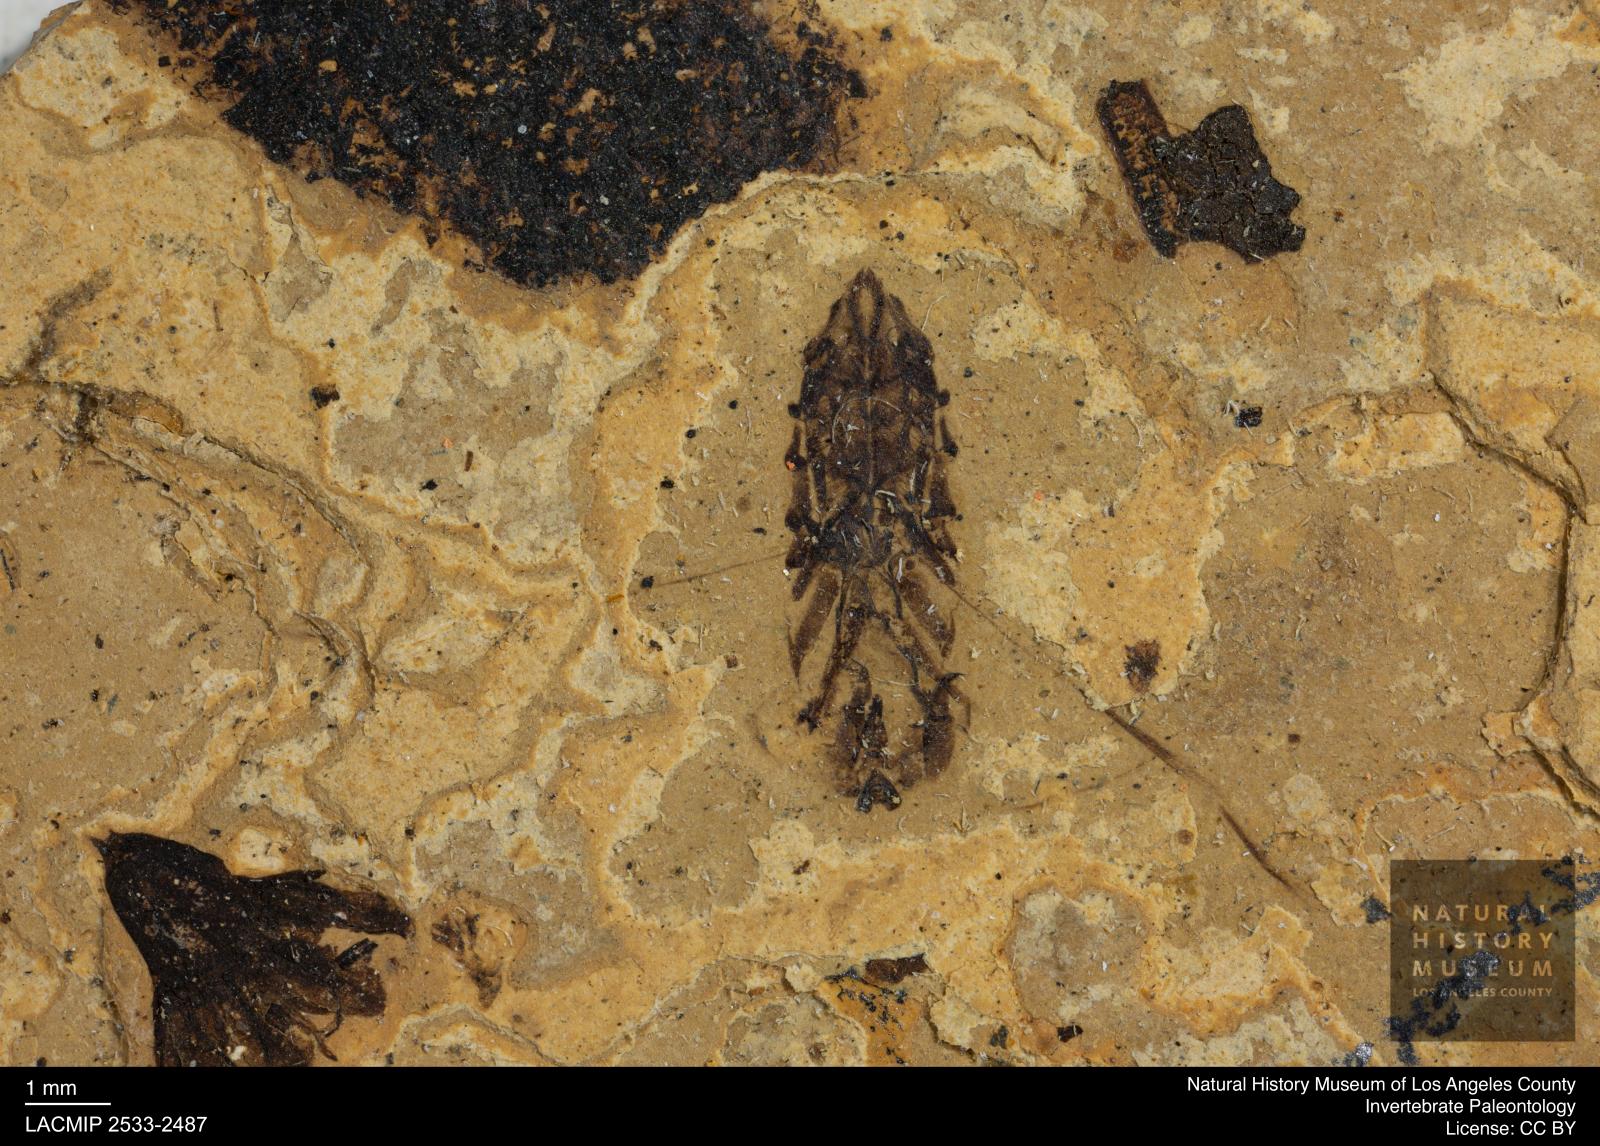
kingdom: Animalia
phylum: Arthropoda
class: Insecta
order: Hemiptera
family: Notonectidae
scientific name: Notonectidae
